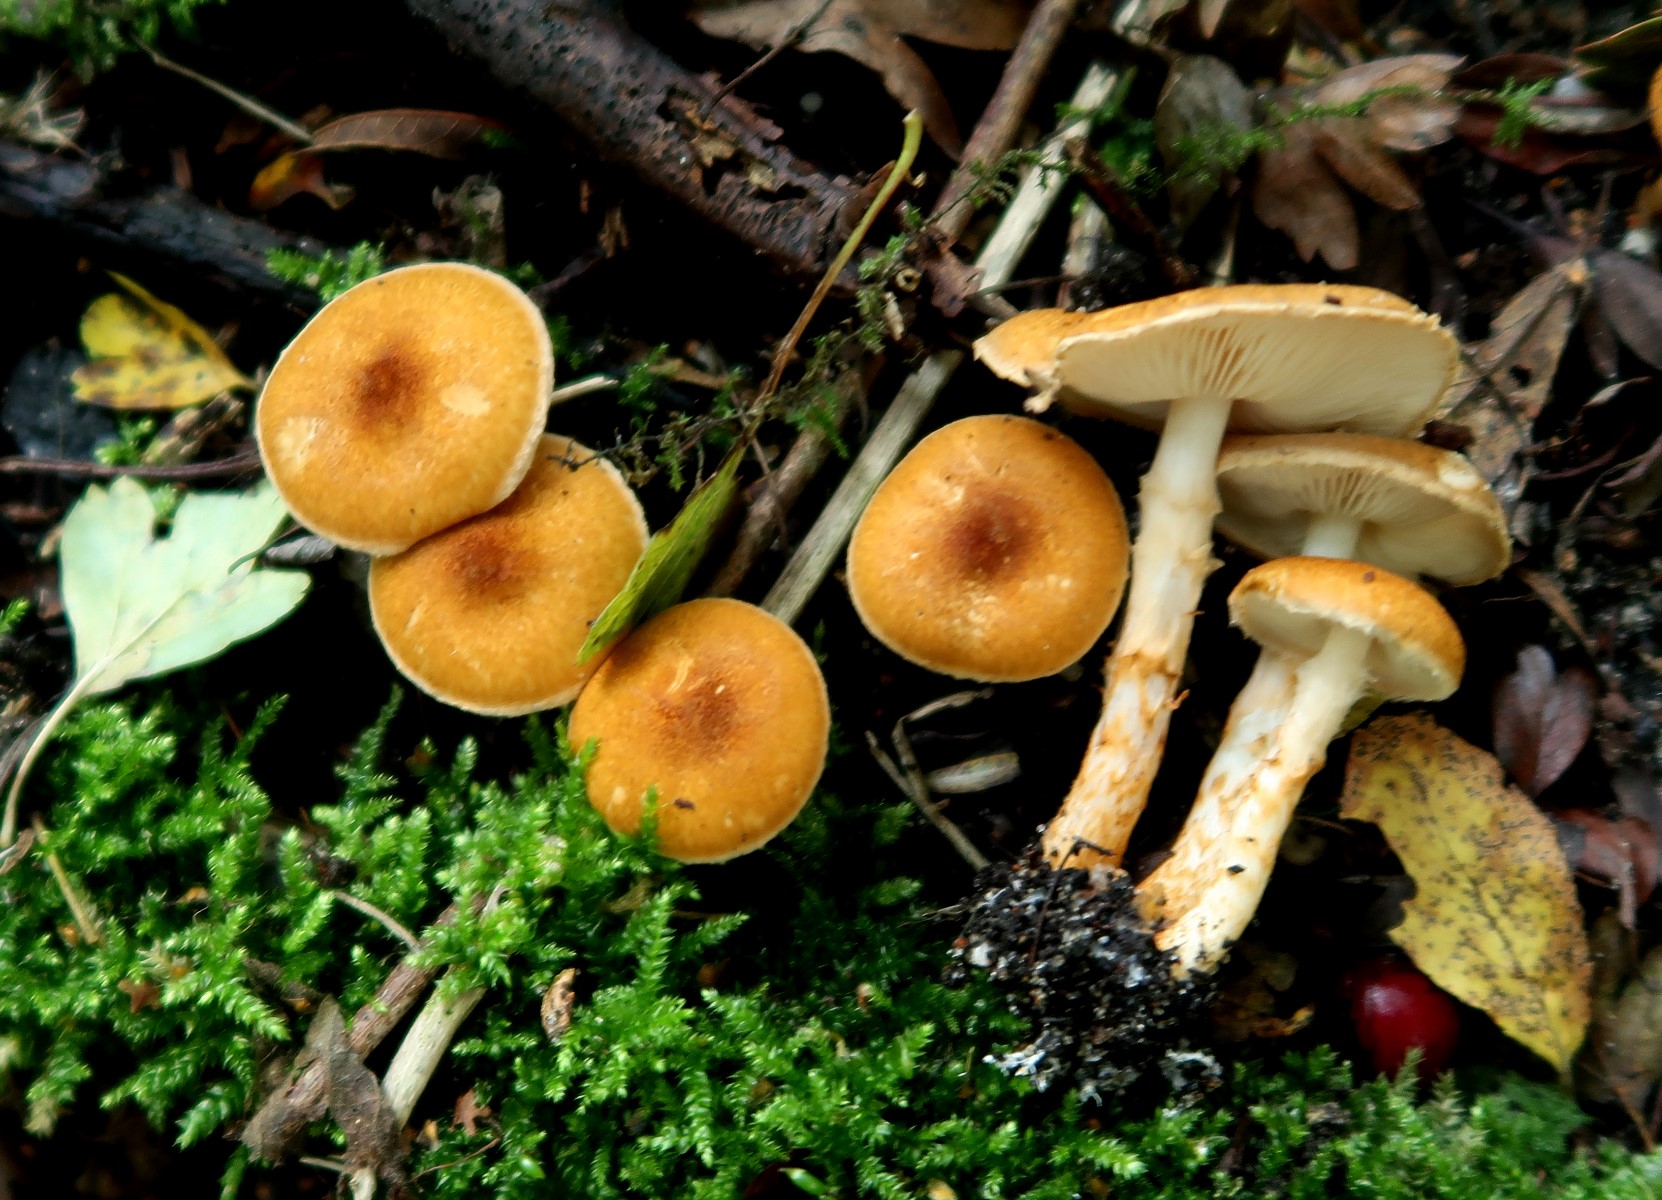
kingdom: Fungi
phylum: Basidiomycota
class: Agaricomycetes
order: Agaricales
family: Agaricaceae
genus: Leucocoprinus
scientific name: Leucocoprinus straminellus
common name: rustbrun parasolhat
